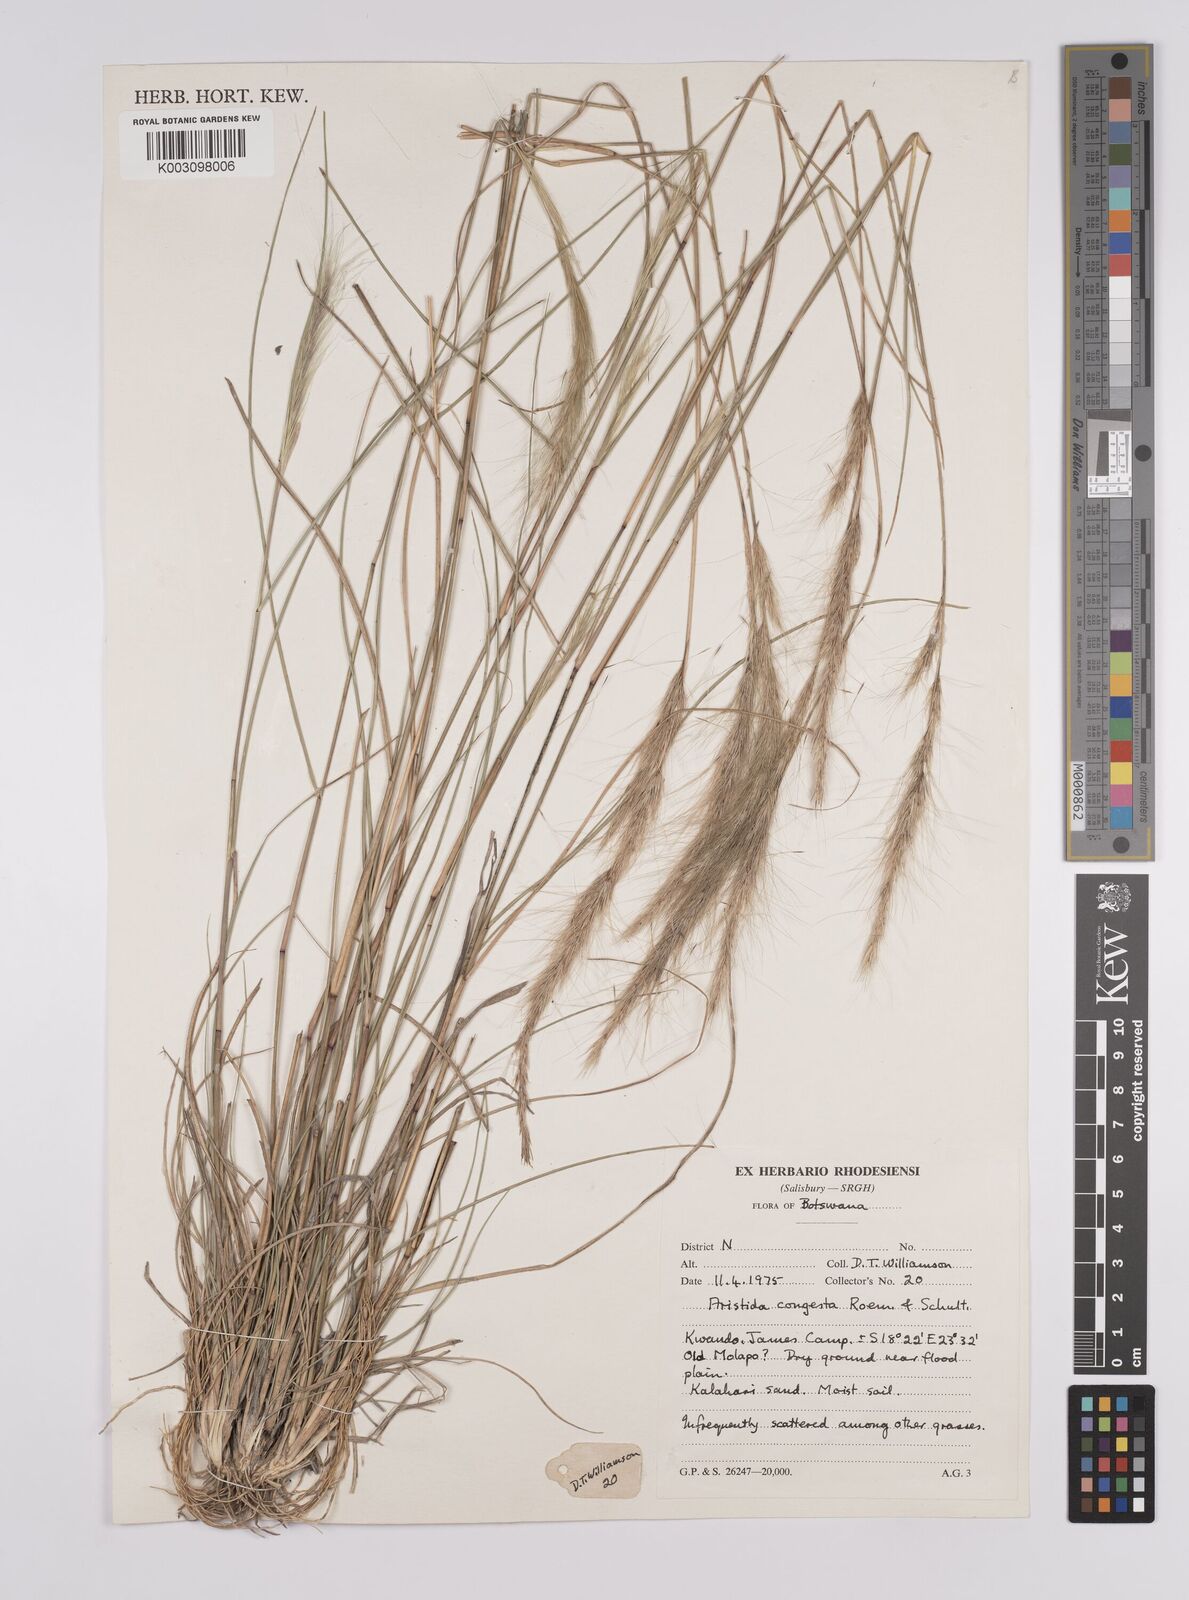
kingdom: Plantae
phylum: Tracheophyta
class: Liliopsida
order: Poales
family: Poaceae
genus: Aristida
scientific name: Aristida congesta
